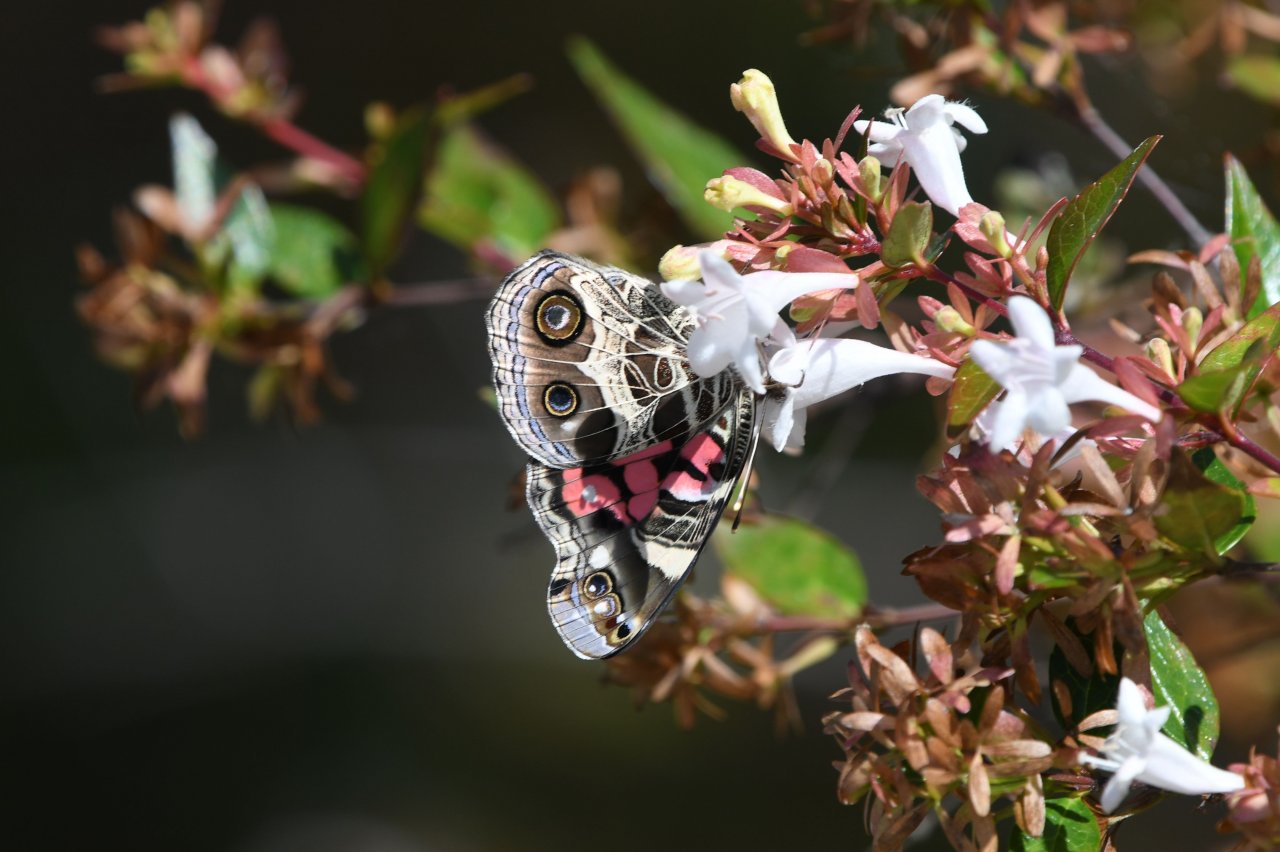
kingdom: Animalia
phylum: Arthropoda
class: Insecta
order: Lepidoptera
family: Nymphalidae
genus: Vanessa
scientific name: Vanessa virginiensis
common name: American Lady
